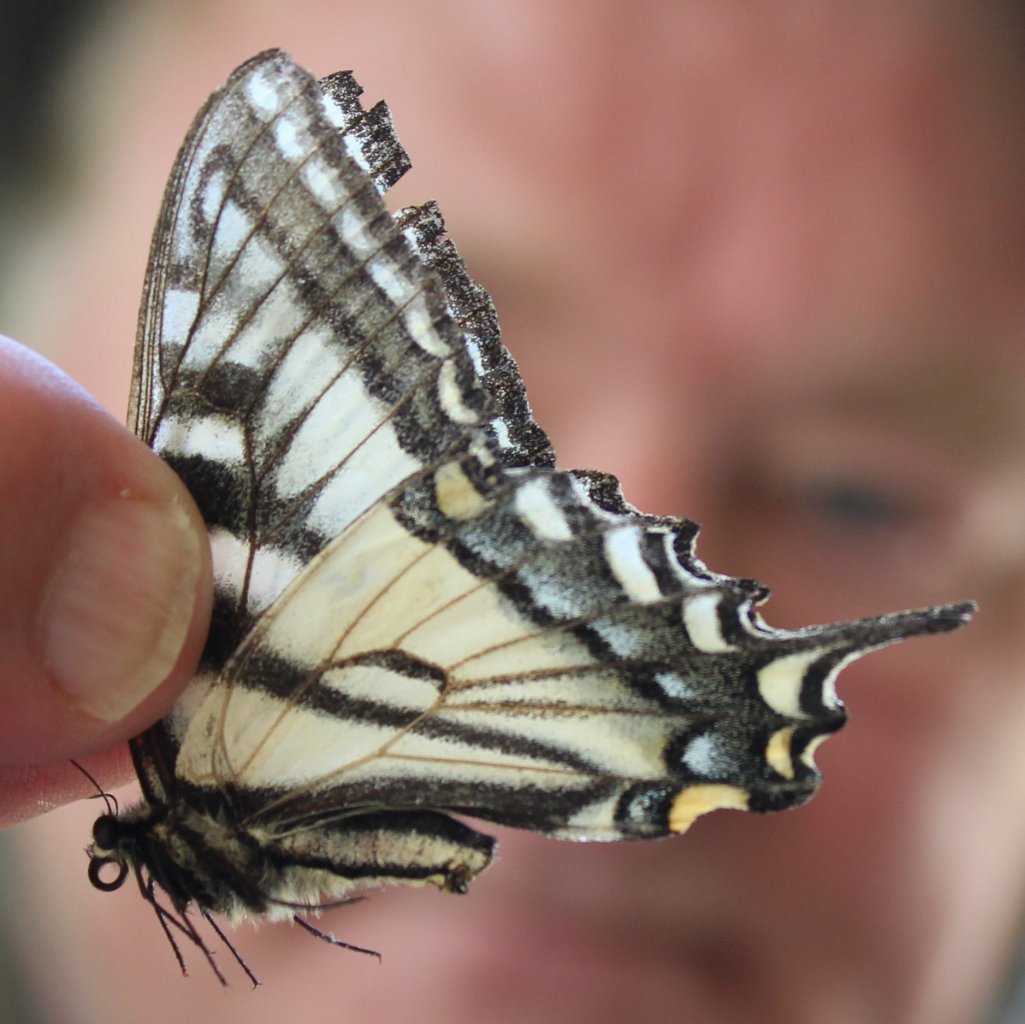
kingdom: Animalia
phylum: Arthropoda
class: Insecta
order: Lepidoptera
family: Papilionidae
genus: Pterourus
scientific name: Pterourus canadensis
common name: Canadian Tiger Swallowtail
